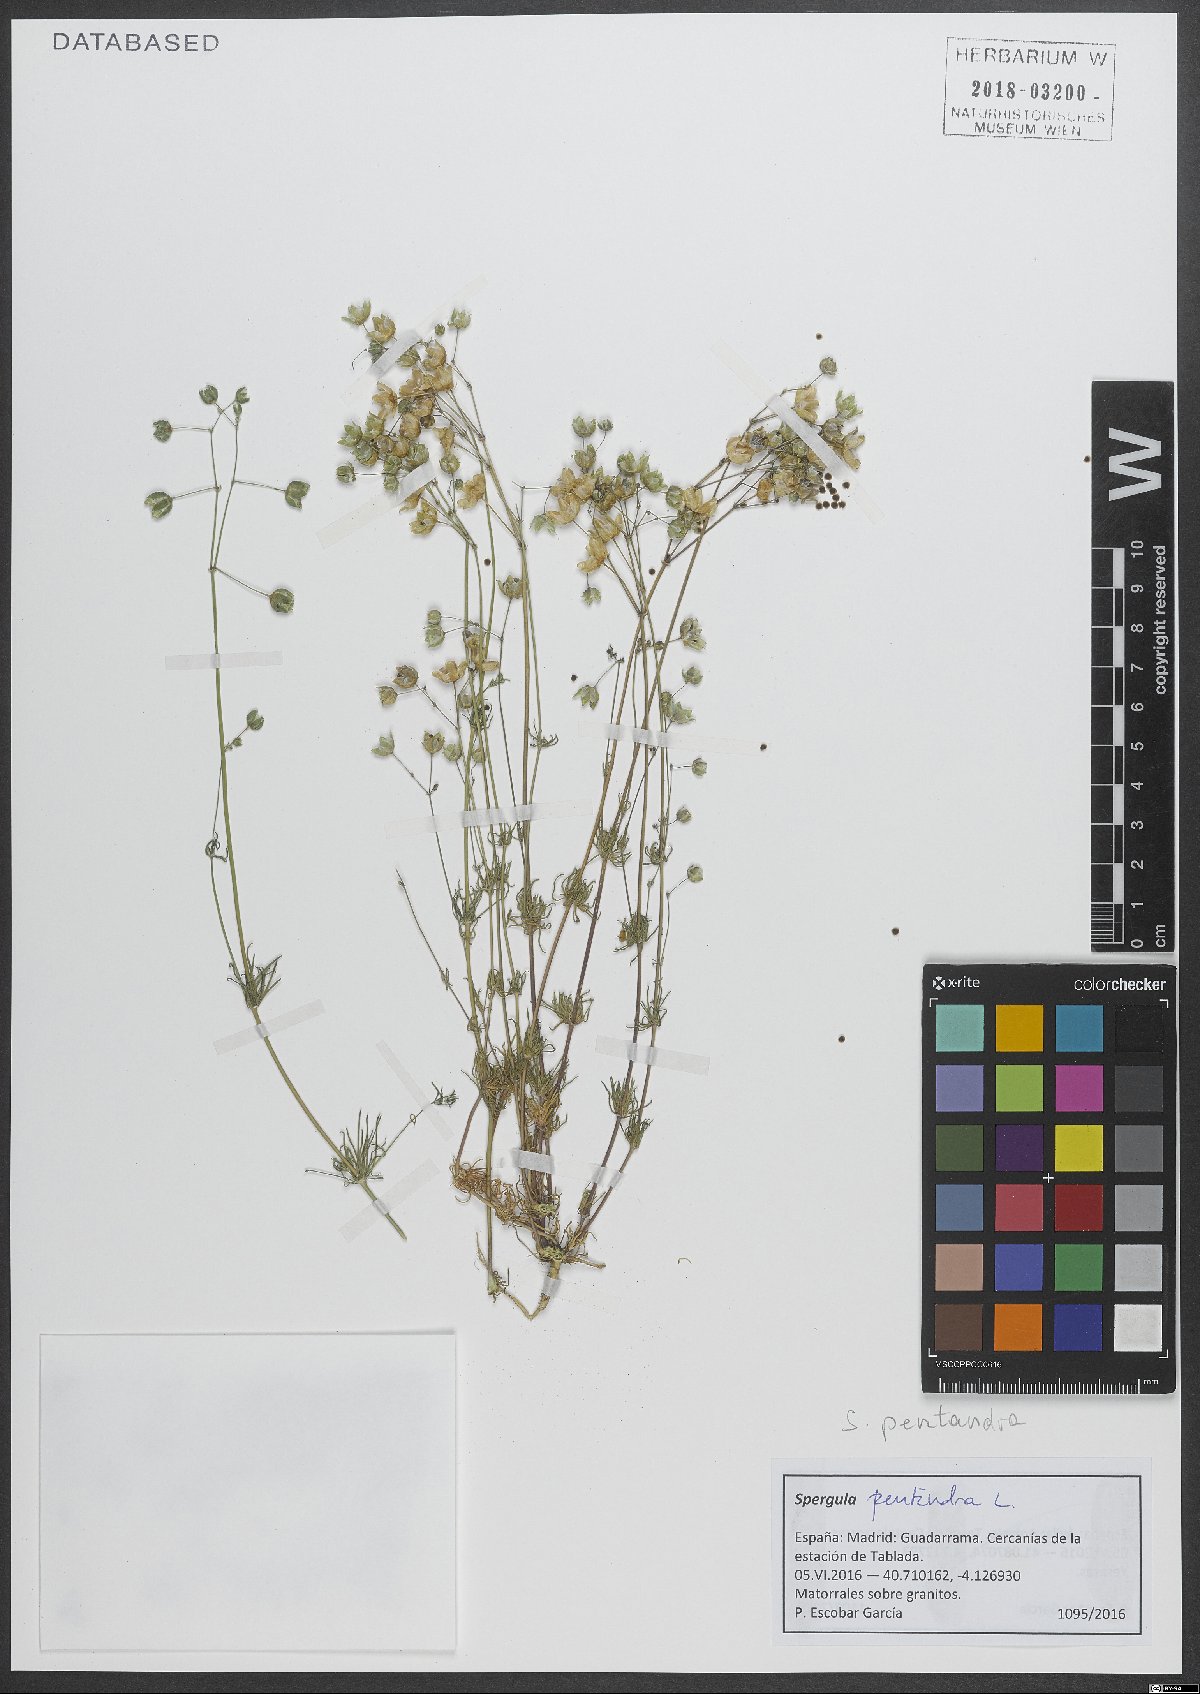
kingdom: Plantae
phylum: Tracheophyta
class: Magnoliopsida
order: Caryophyllales
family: Caryophyllaceae
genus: Spergula
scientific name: Spergula pentandra
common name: Wingstem spurry
